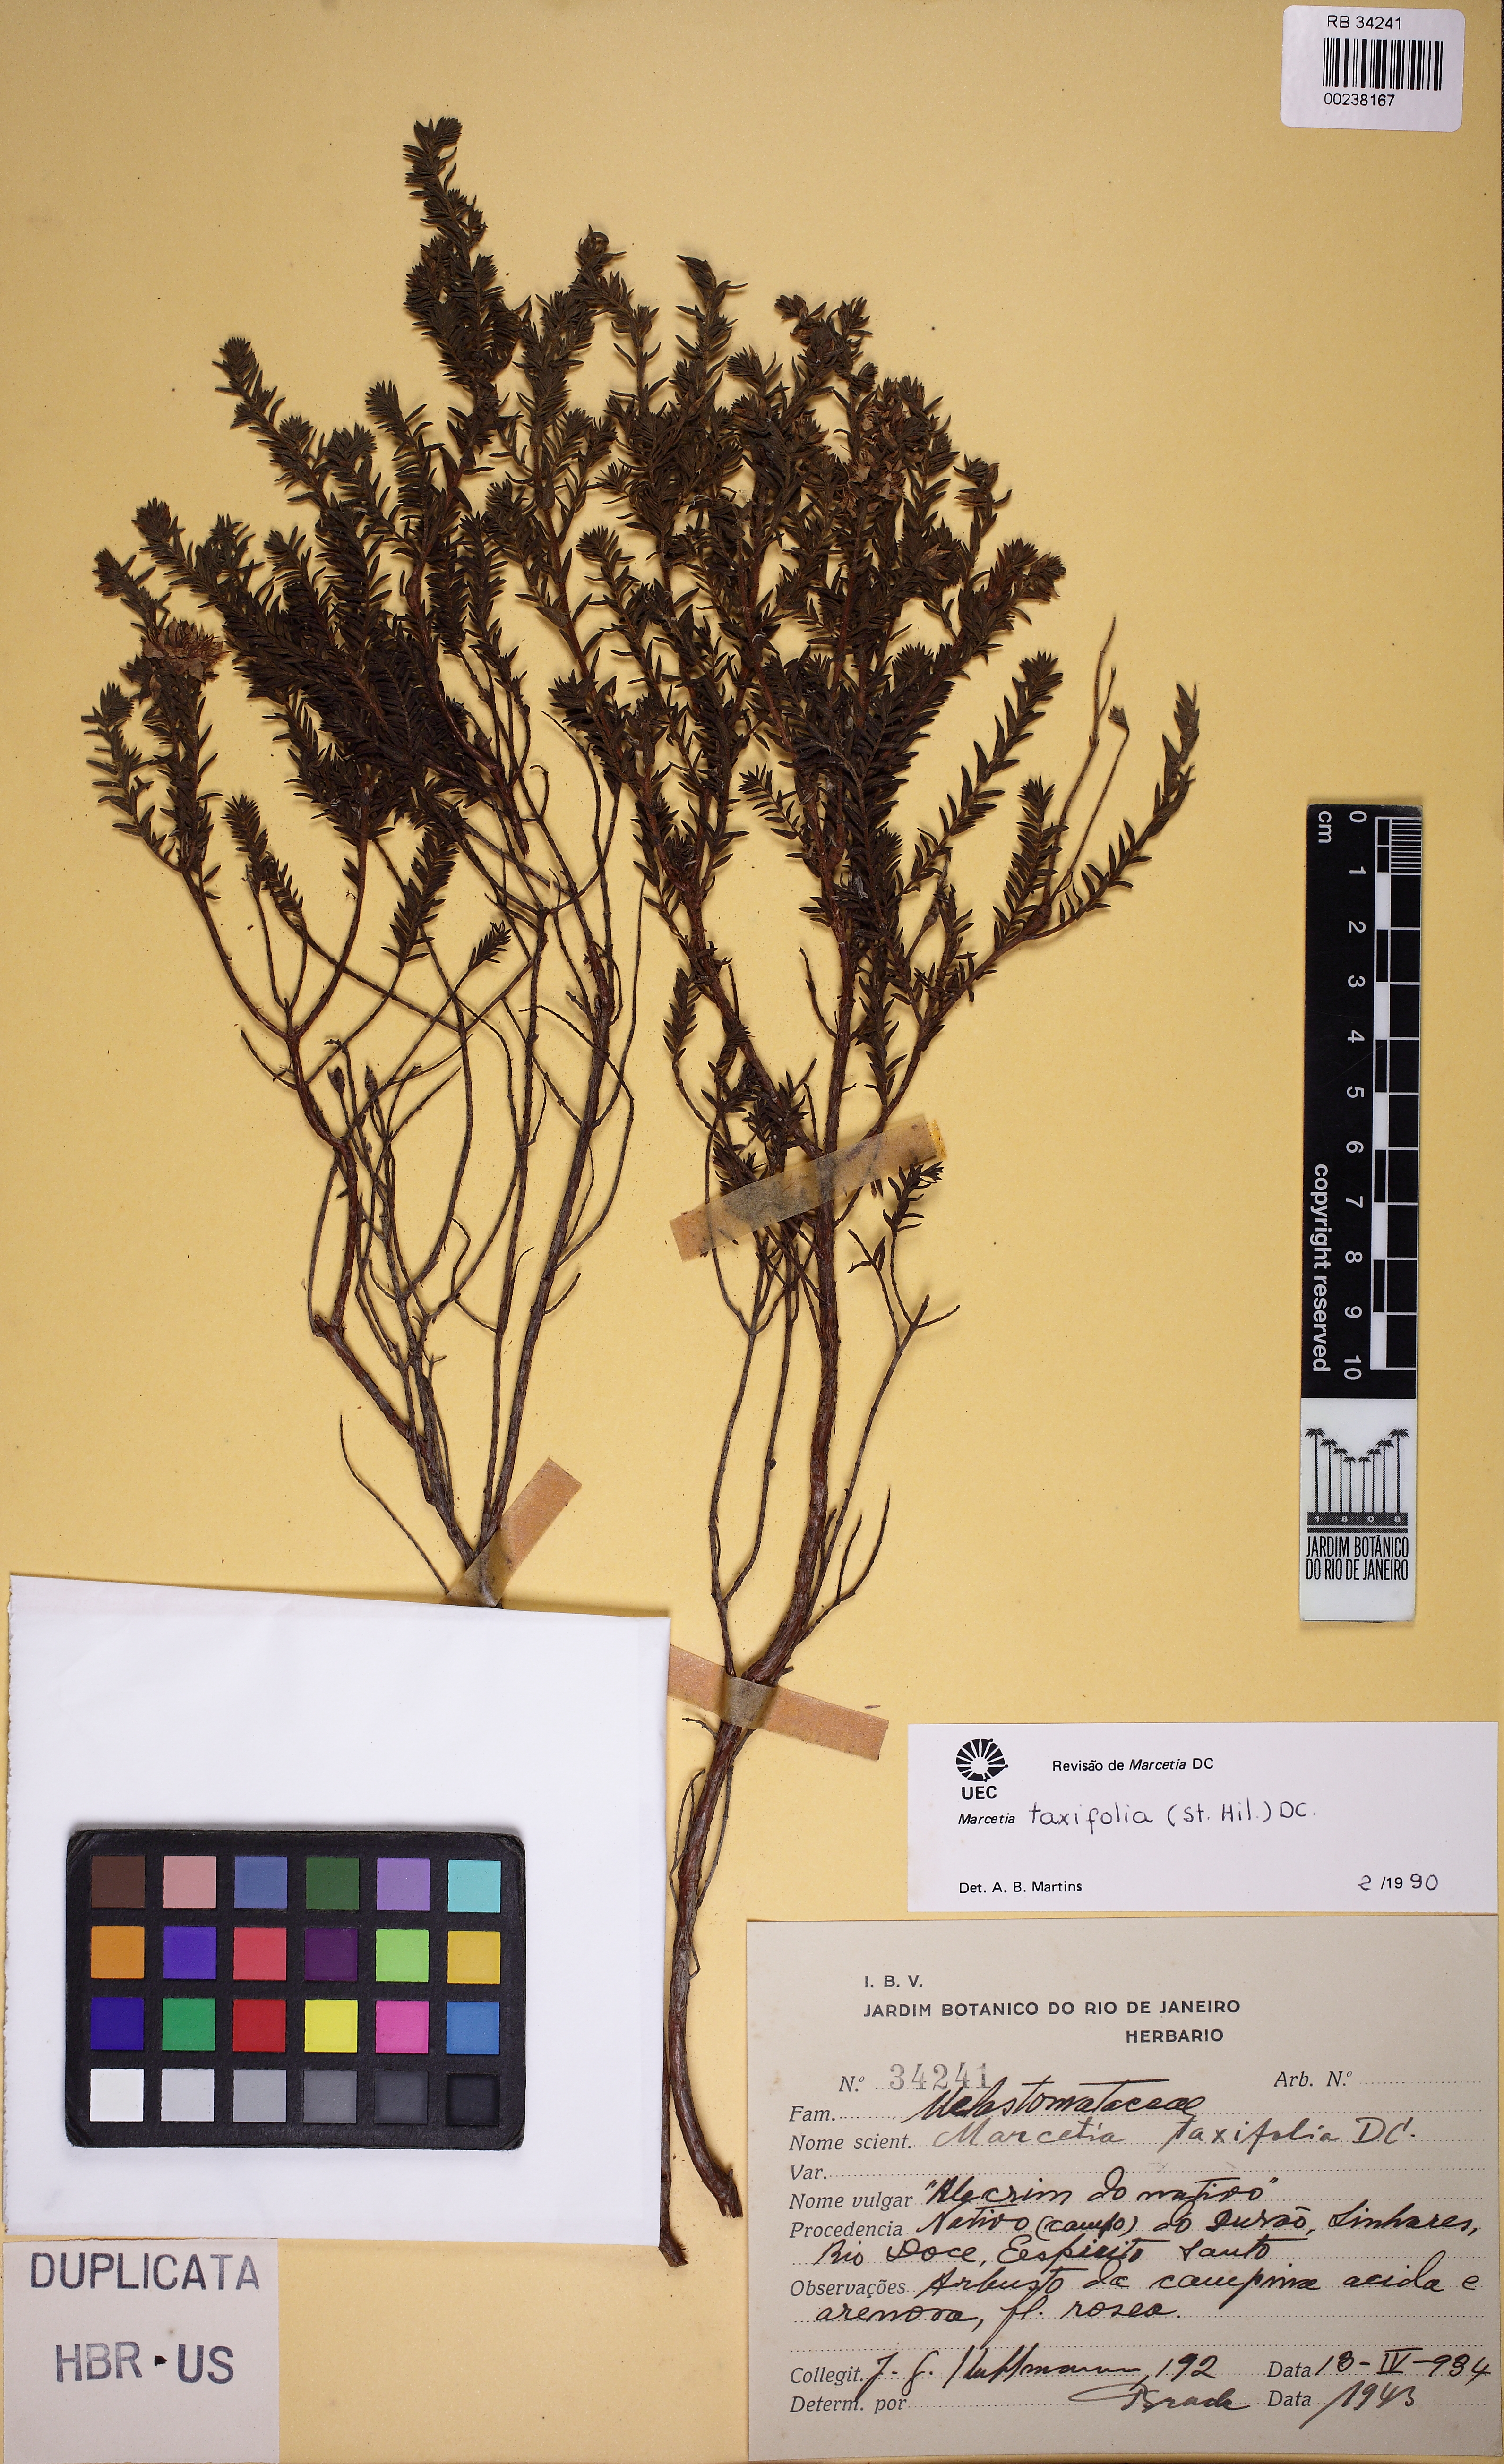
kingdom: Plantae
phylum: Tracheophyta
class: Magnoliopsida
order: Myrtales
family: Melastomataceae
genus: Marcetia
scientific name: Marcetia taxifolia
